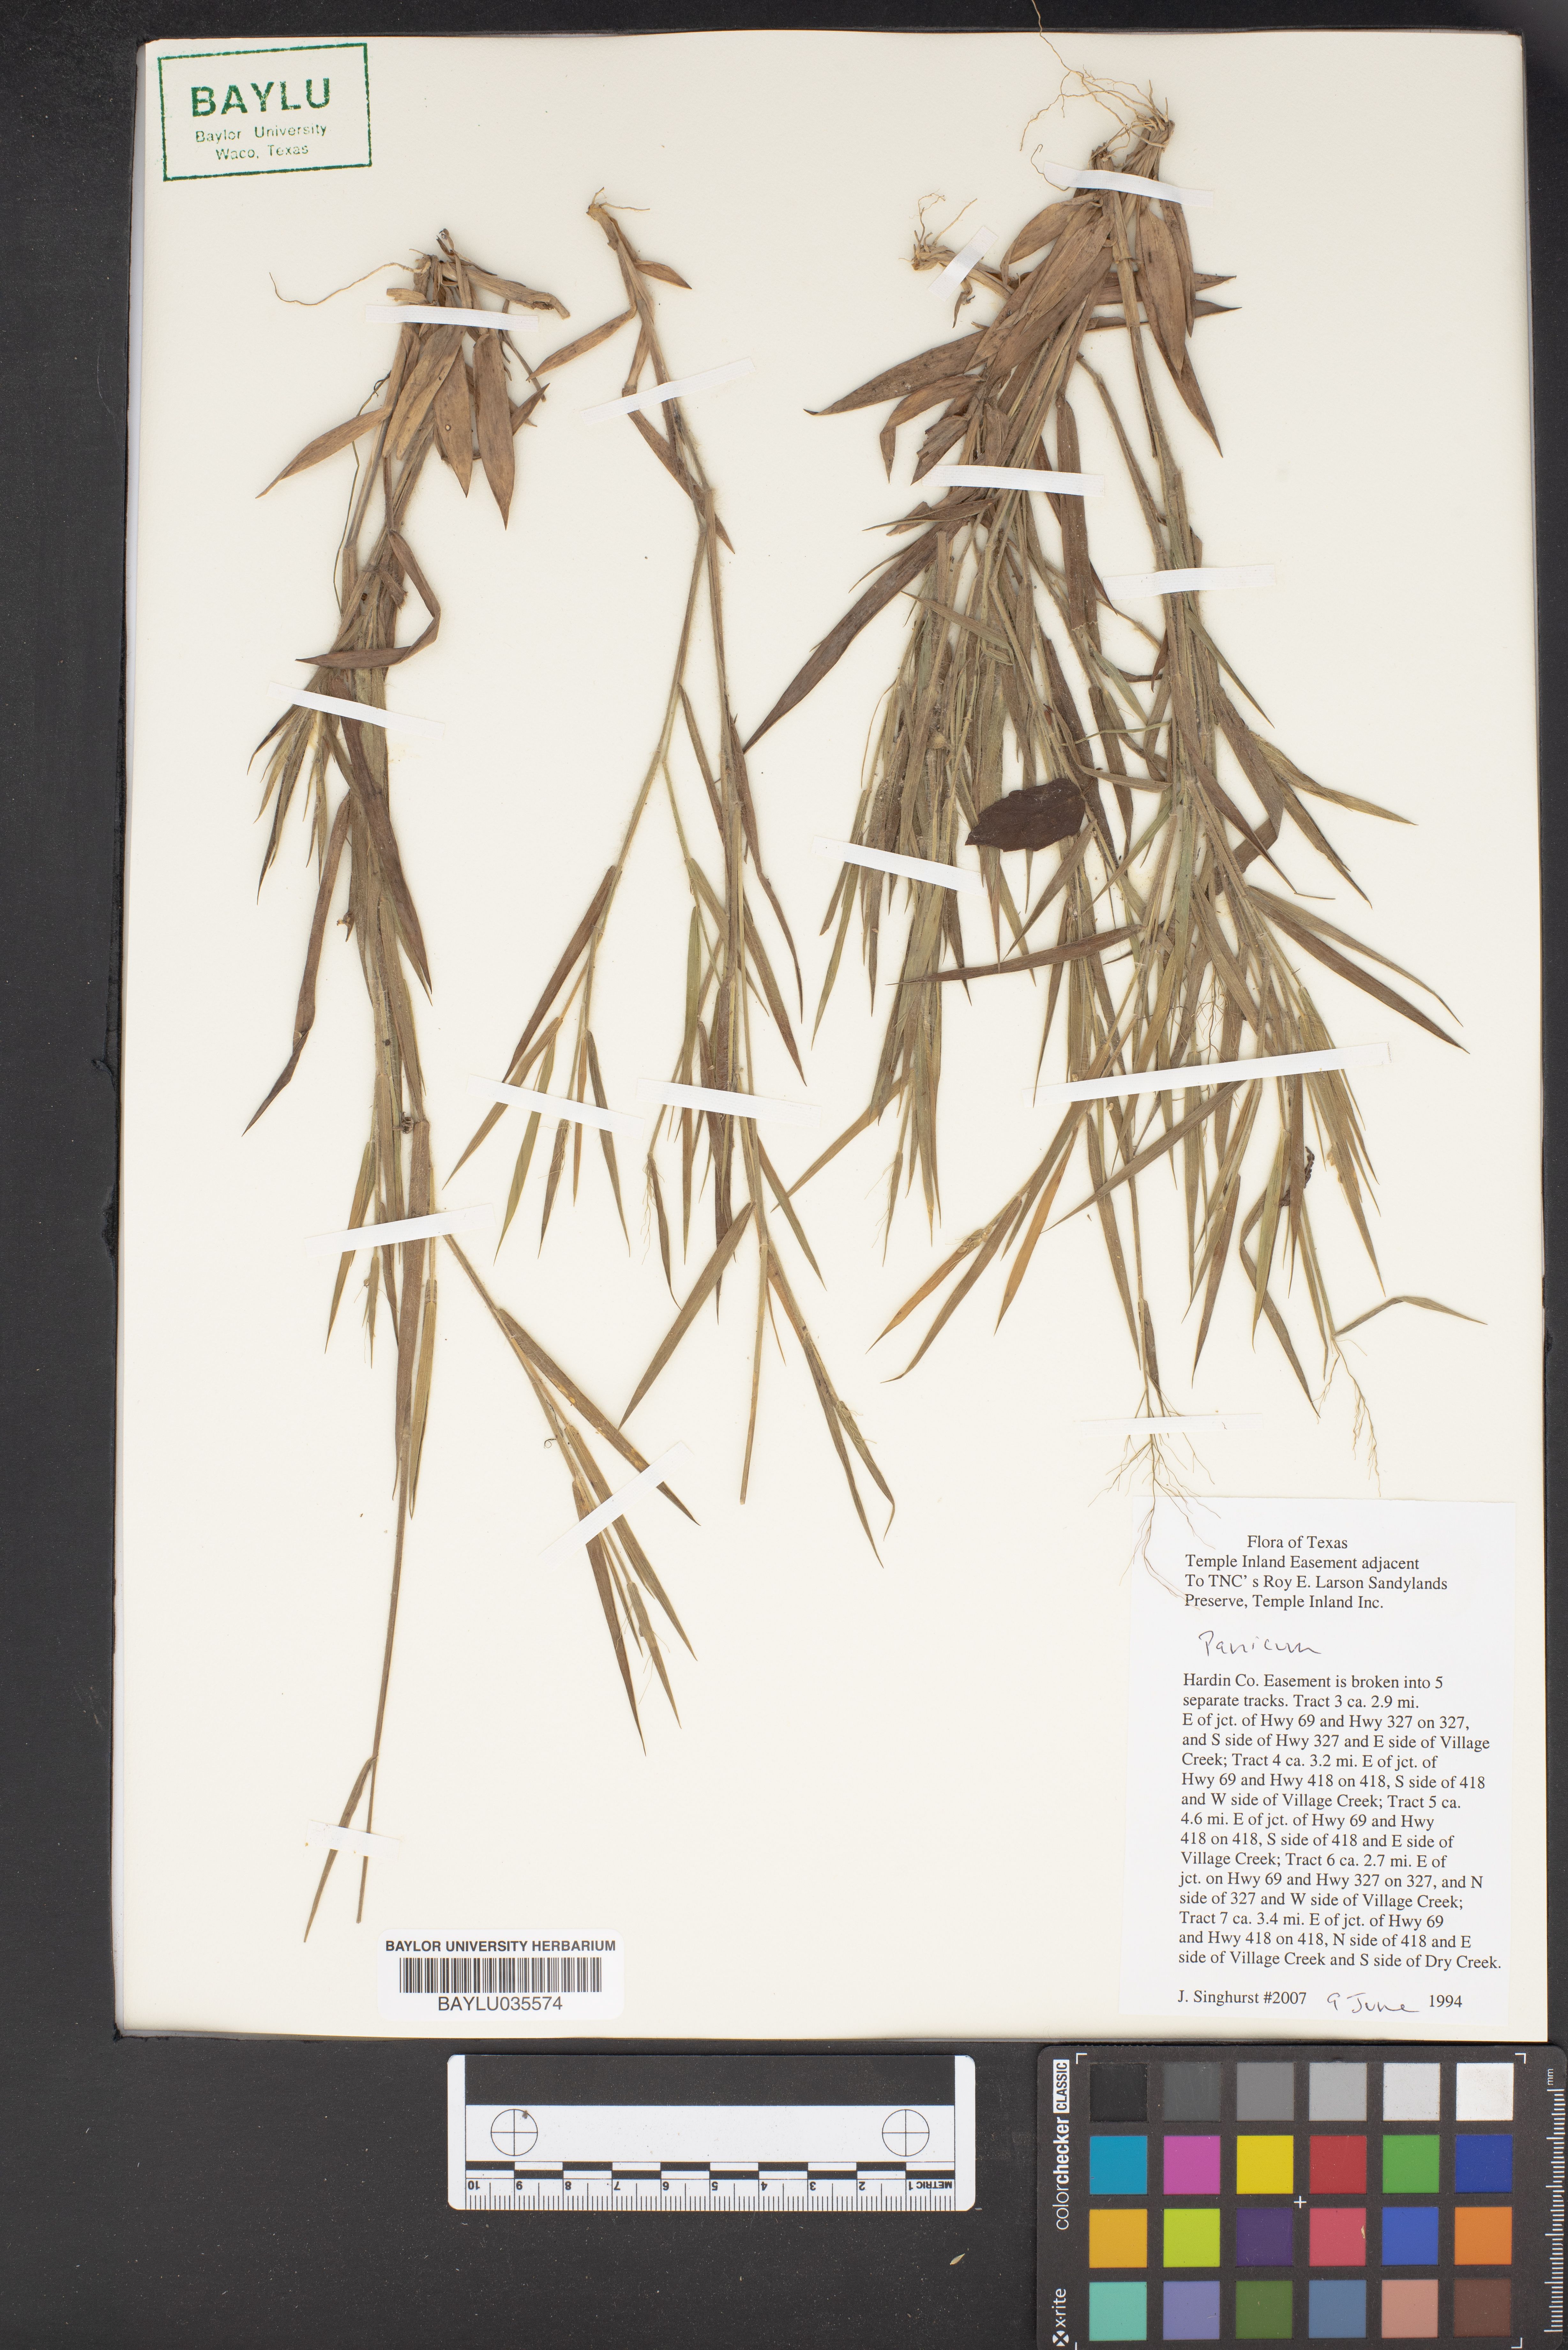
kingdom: Plantae
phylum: Tracheophyta
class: Liliopsida
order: Poales
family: Poaceae
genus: Panicum
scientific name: Panicum
